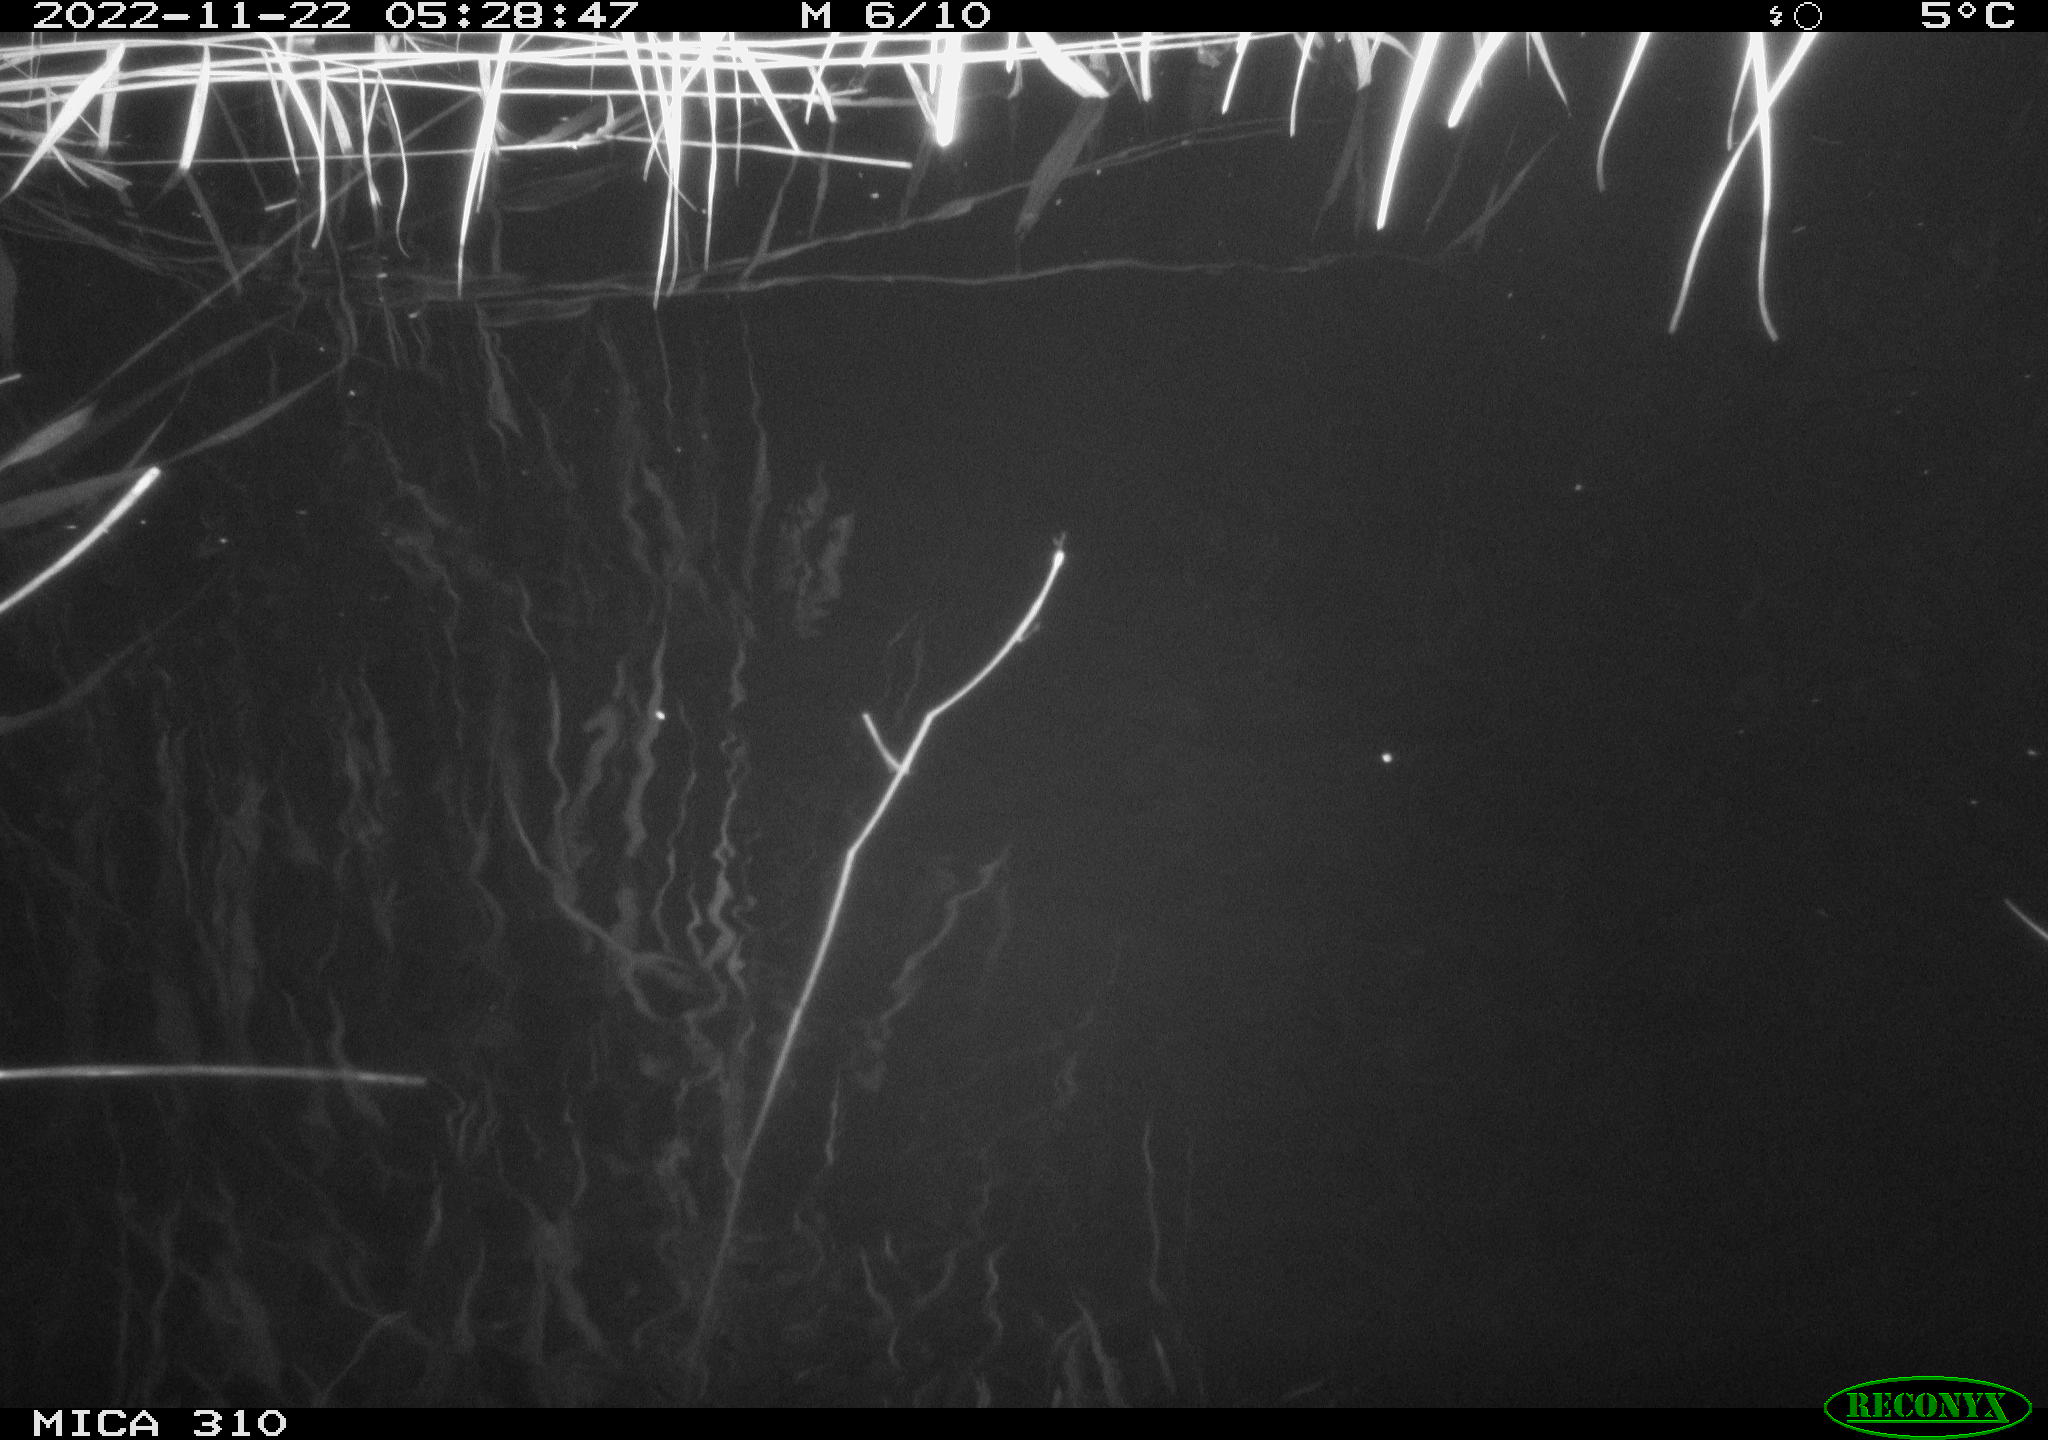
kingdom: Animalia
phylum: Chordata
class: Mammalia
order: Rodentia
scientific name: Rodentia
